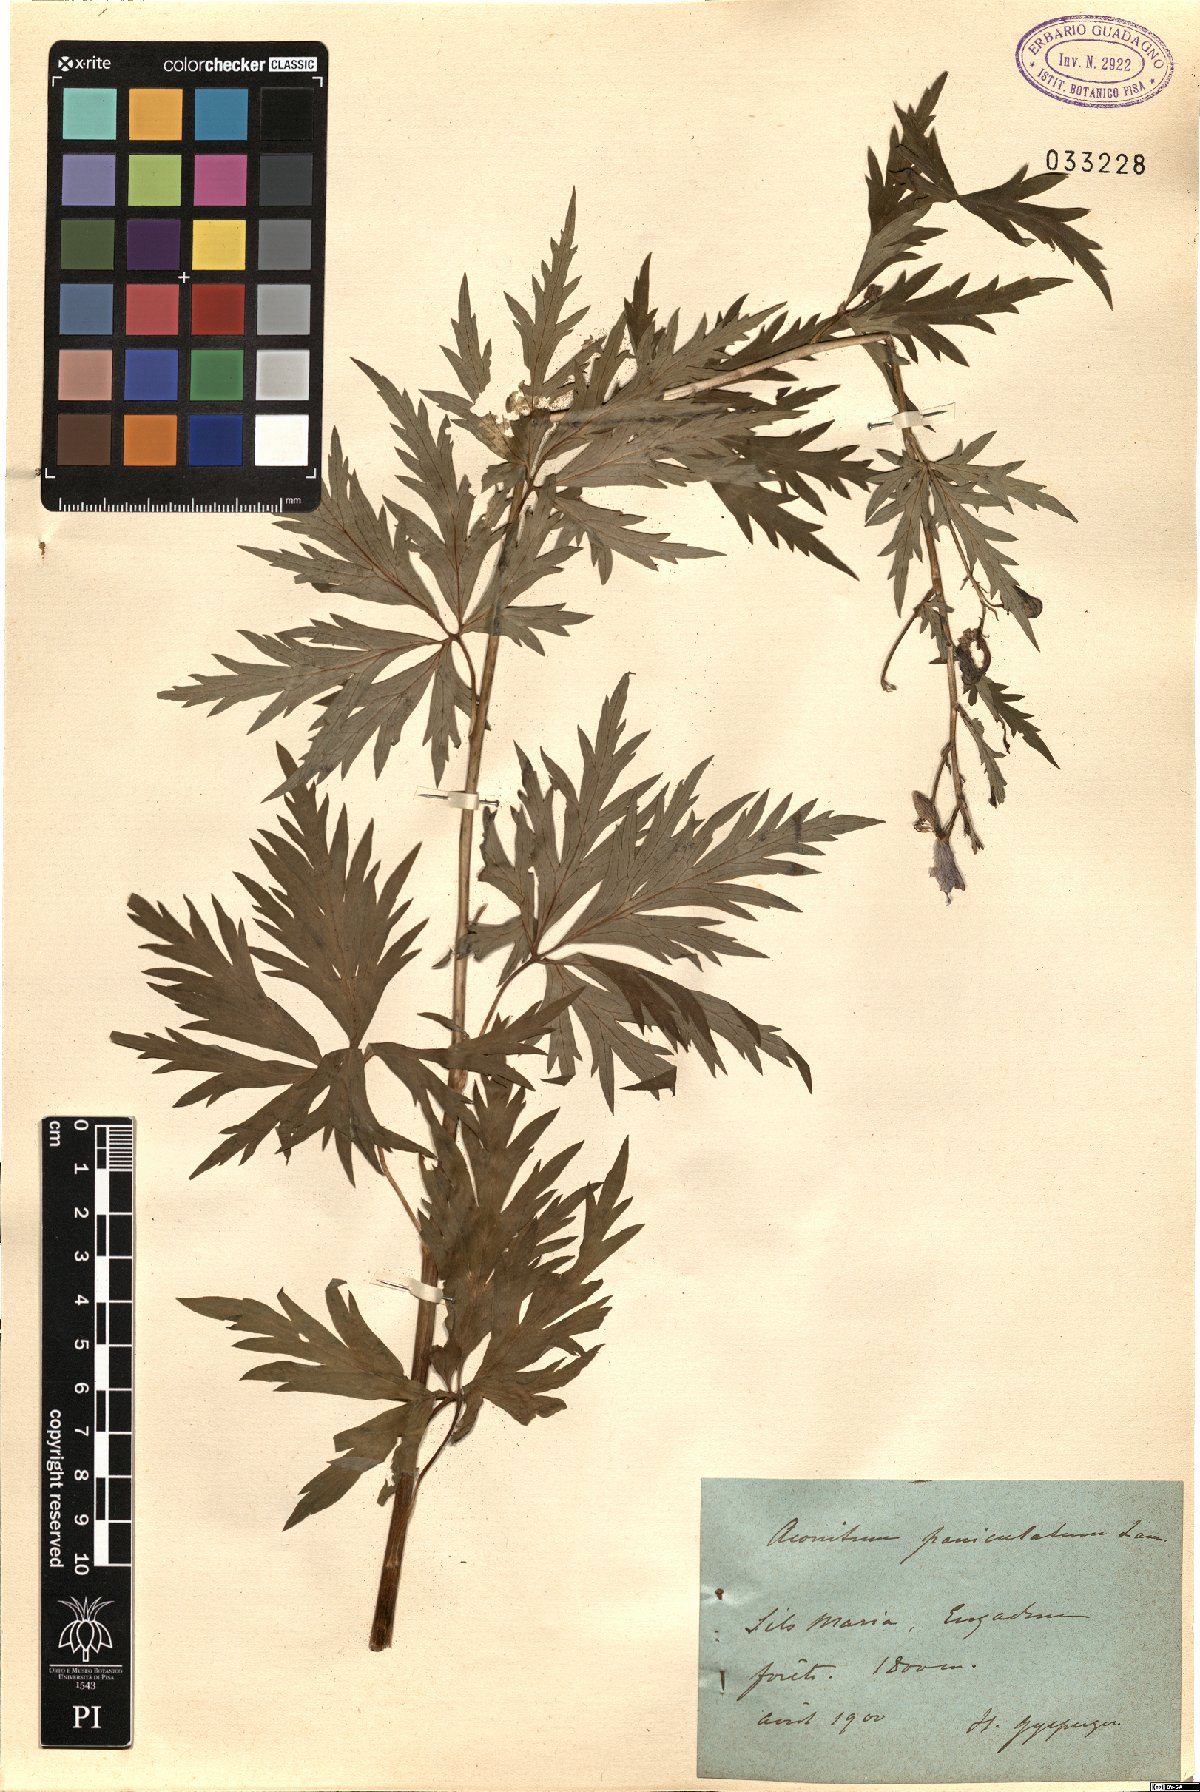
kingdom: Plantae
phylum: Tracheophyta
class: Magnoliopsida
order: Ranunculales
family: Ranunculaceae
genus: Aconitum
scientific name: Aconitum degenii
